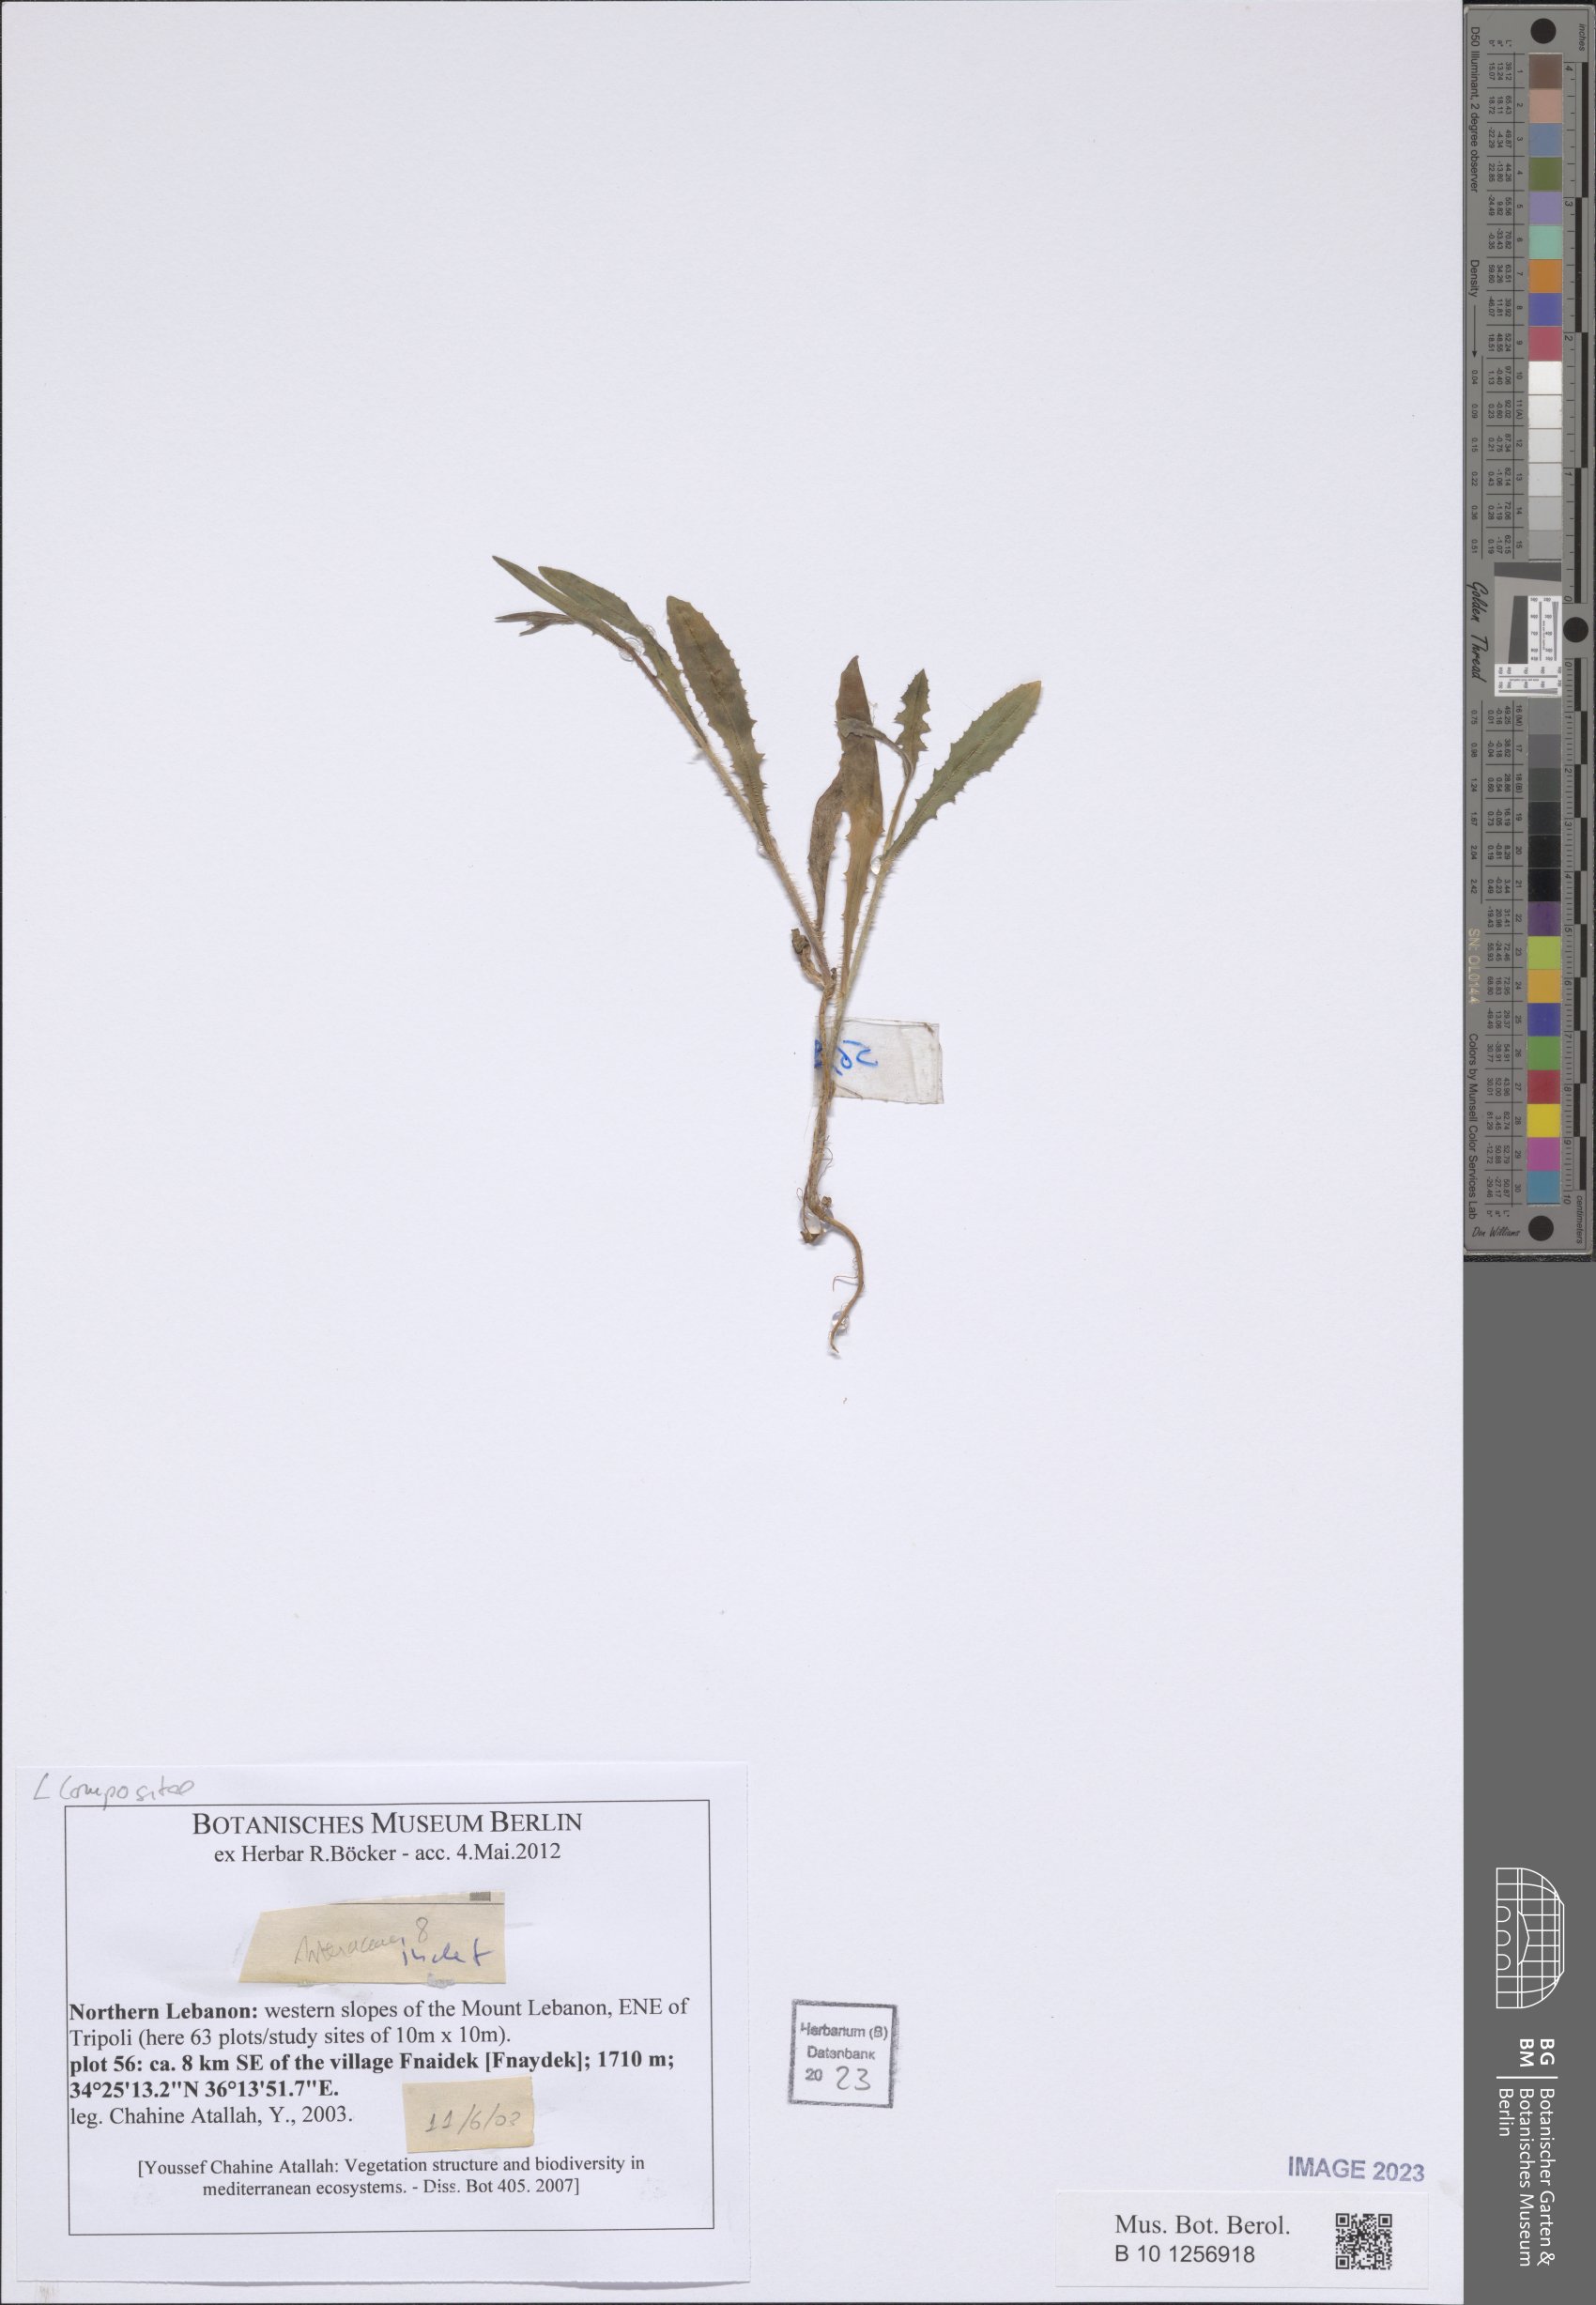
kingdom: Plantae
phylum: Tracheophyta
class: Magnoliopsida
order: Asterales
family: Asteraceae
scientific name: Asteraceae
